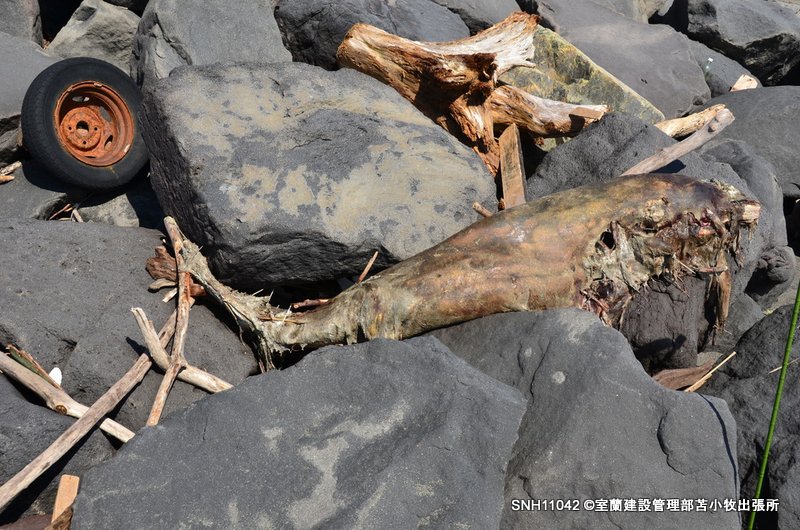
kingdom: Animalia
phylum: Chordata
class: Mammalia
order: Cetacea
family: Delphinidae
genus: Lagenorhynchus
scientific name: Lagenorhynchus obliquidens
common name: Pacific white-sided dolphin
